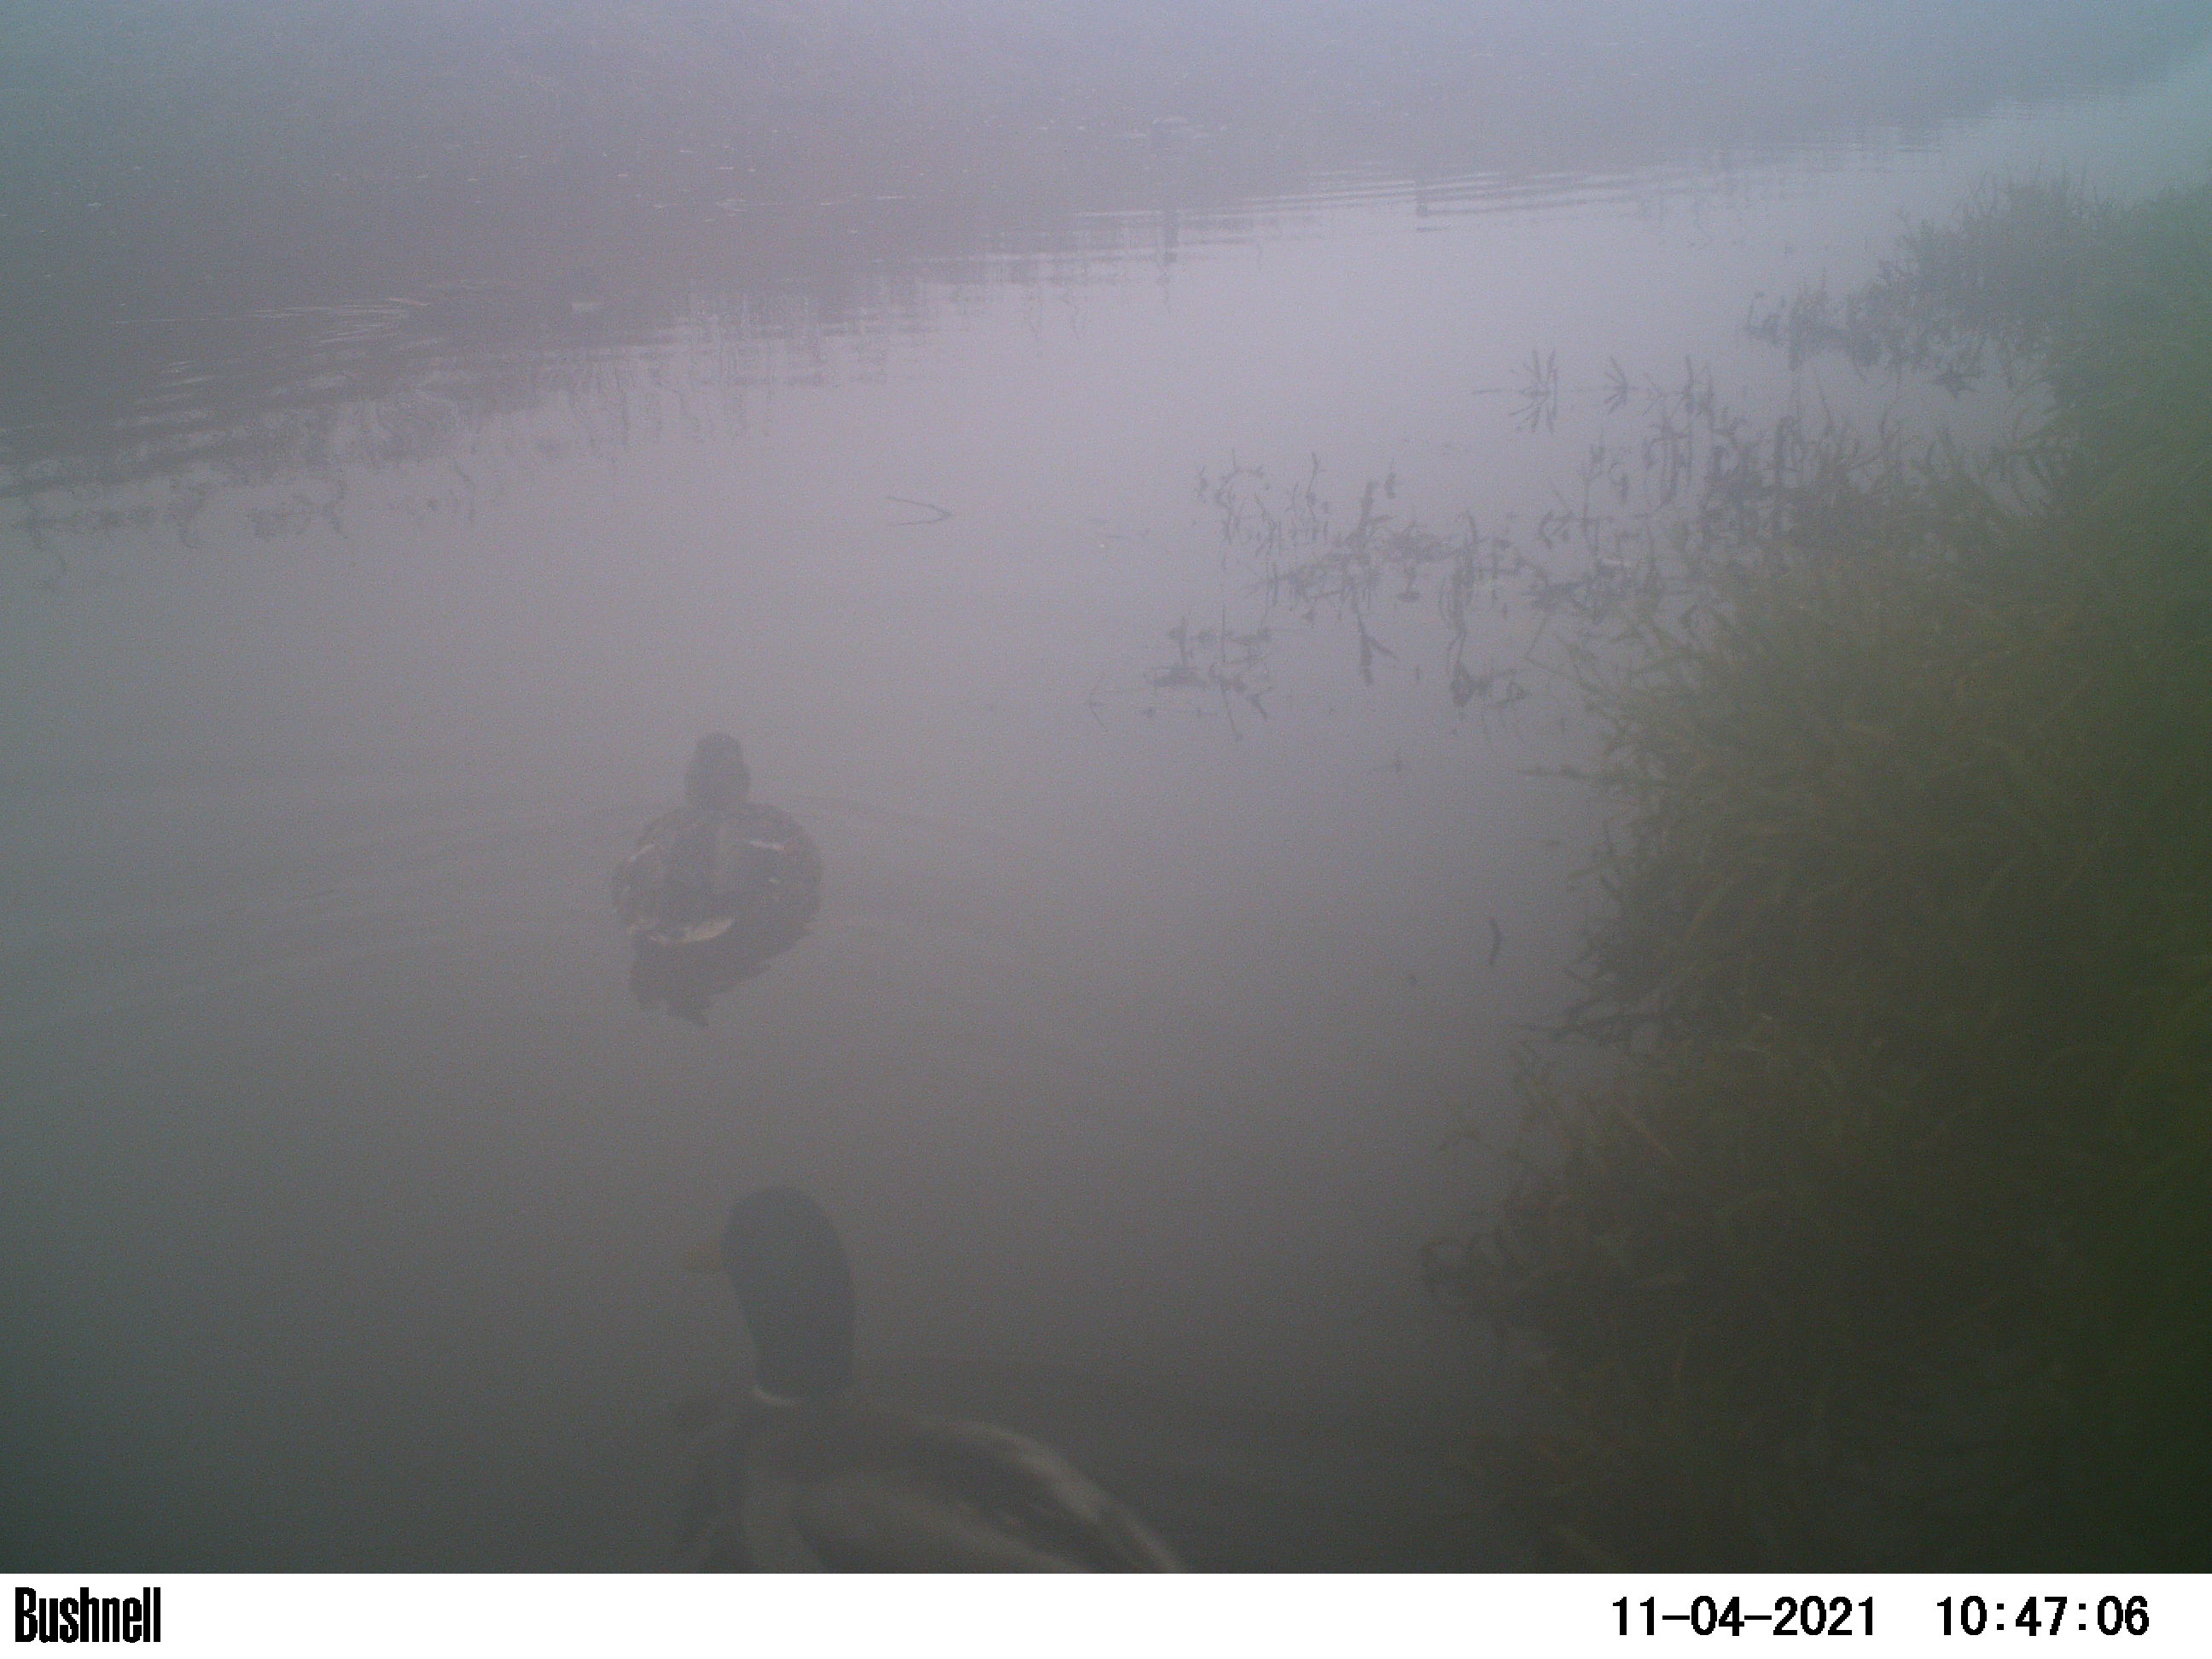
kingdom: Animalia
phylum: Chordata
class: Aves
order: Anseriformes
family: Anatidae
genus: Anas
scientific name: Anas
